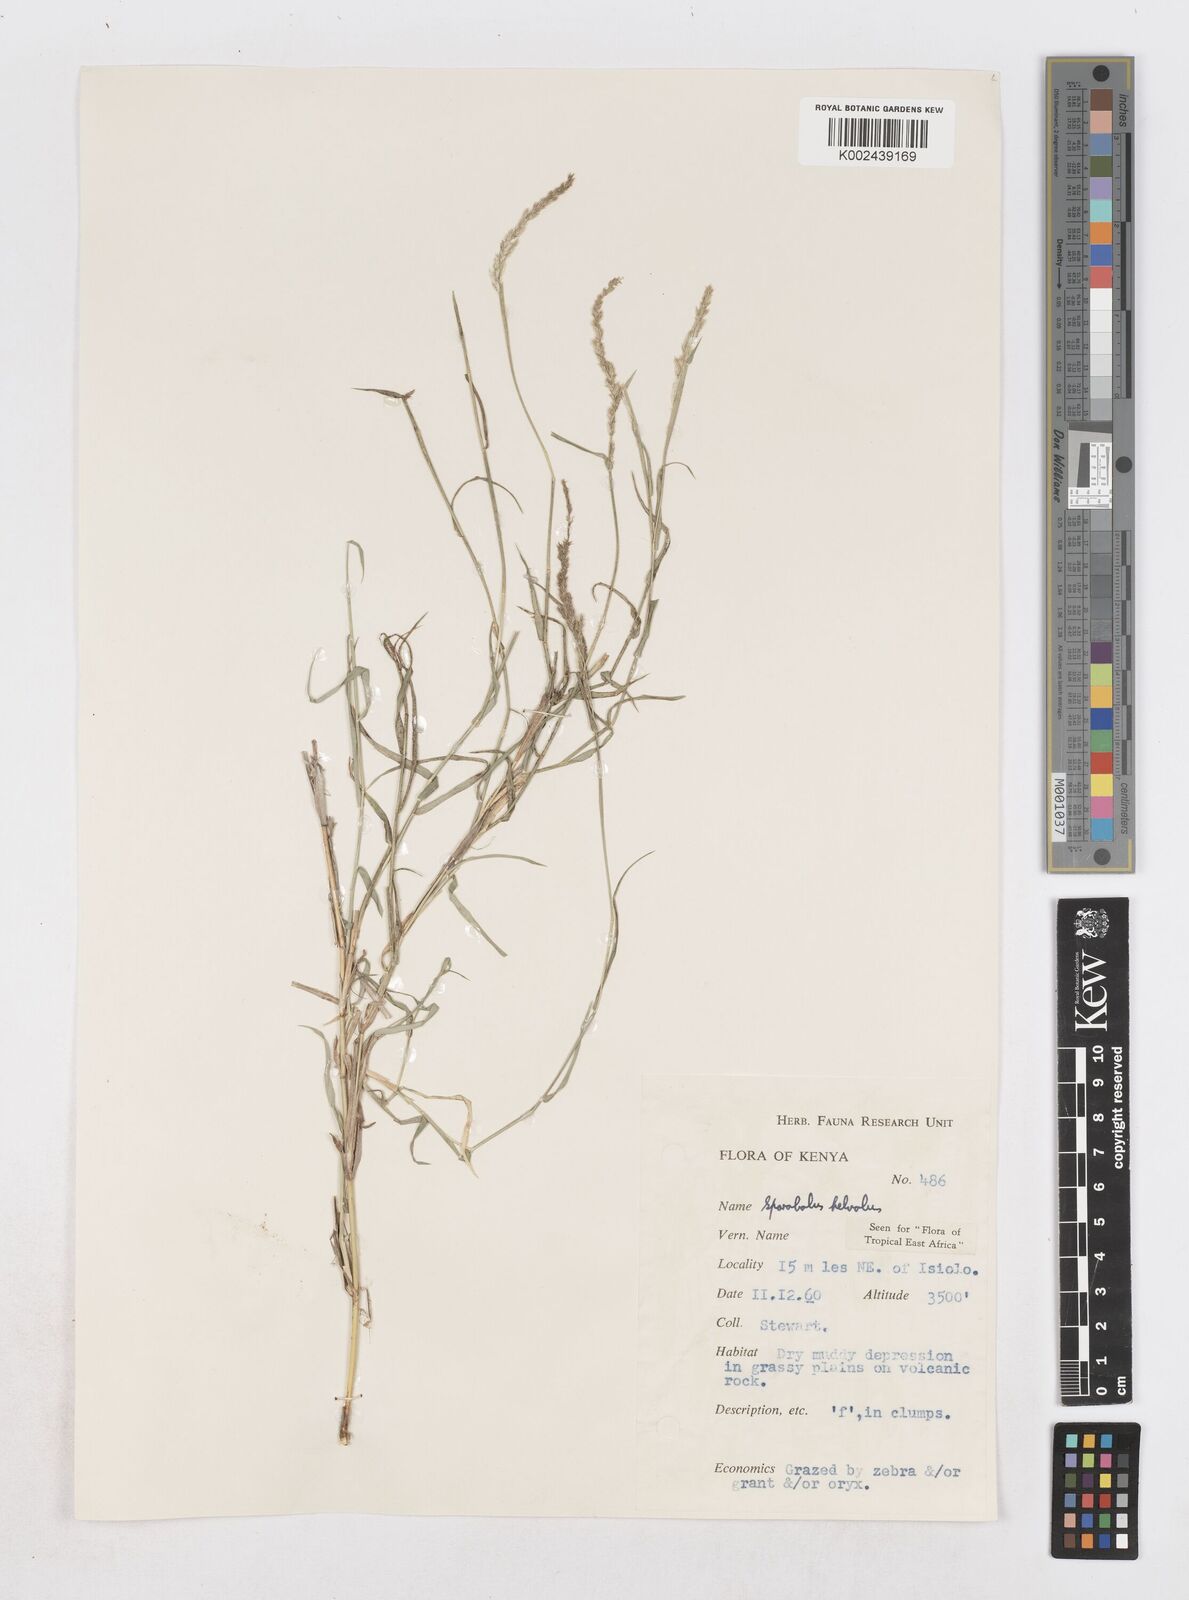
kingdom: Plantae
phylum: Tracheophyta
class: Liliopsida
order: Poales
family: Poaceae
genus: Sporobolus
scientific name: Sporobolus helvolus
